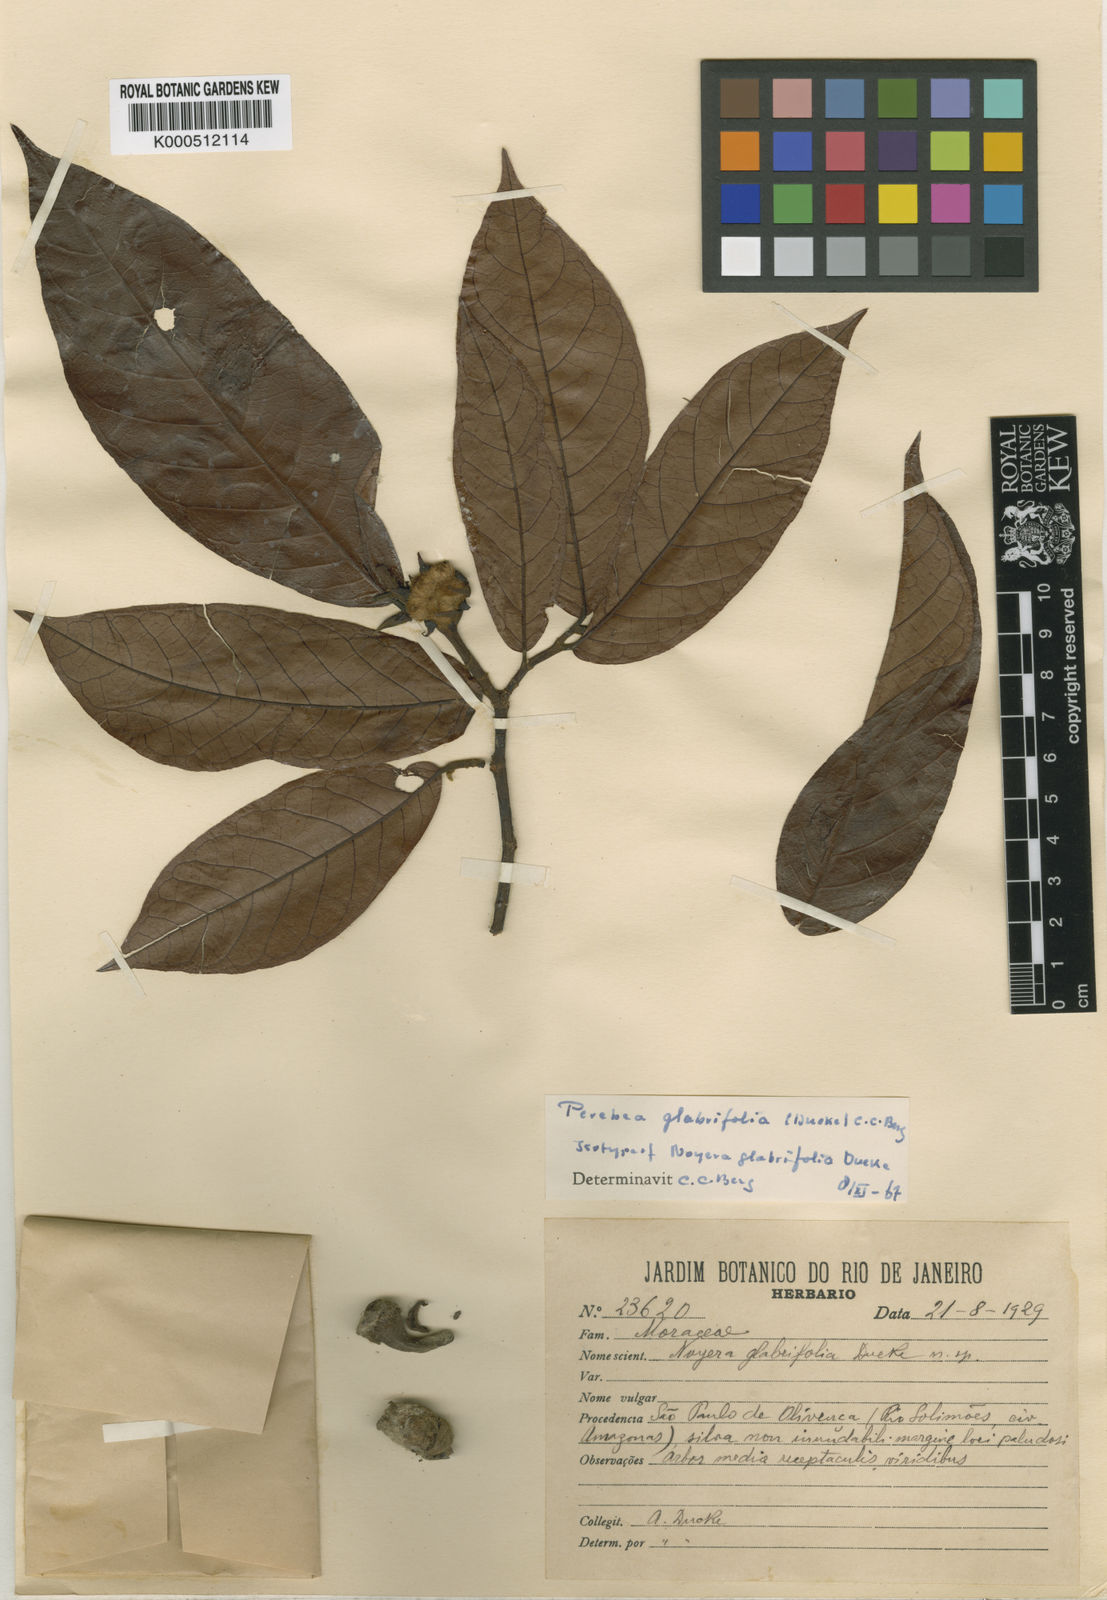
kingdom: Plantae
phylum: Tracheophyta
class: Magnoliopsida
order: Rosales
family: Moraceae
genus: Perebea
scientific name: Perebea rubra
